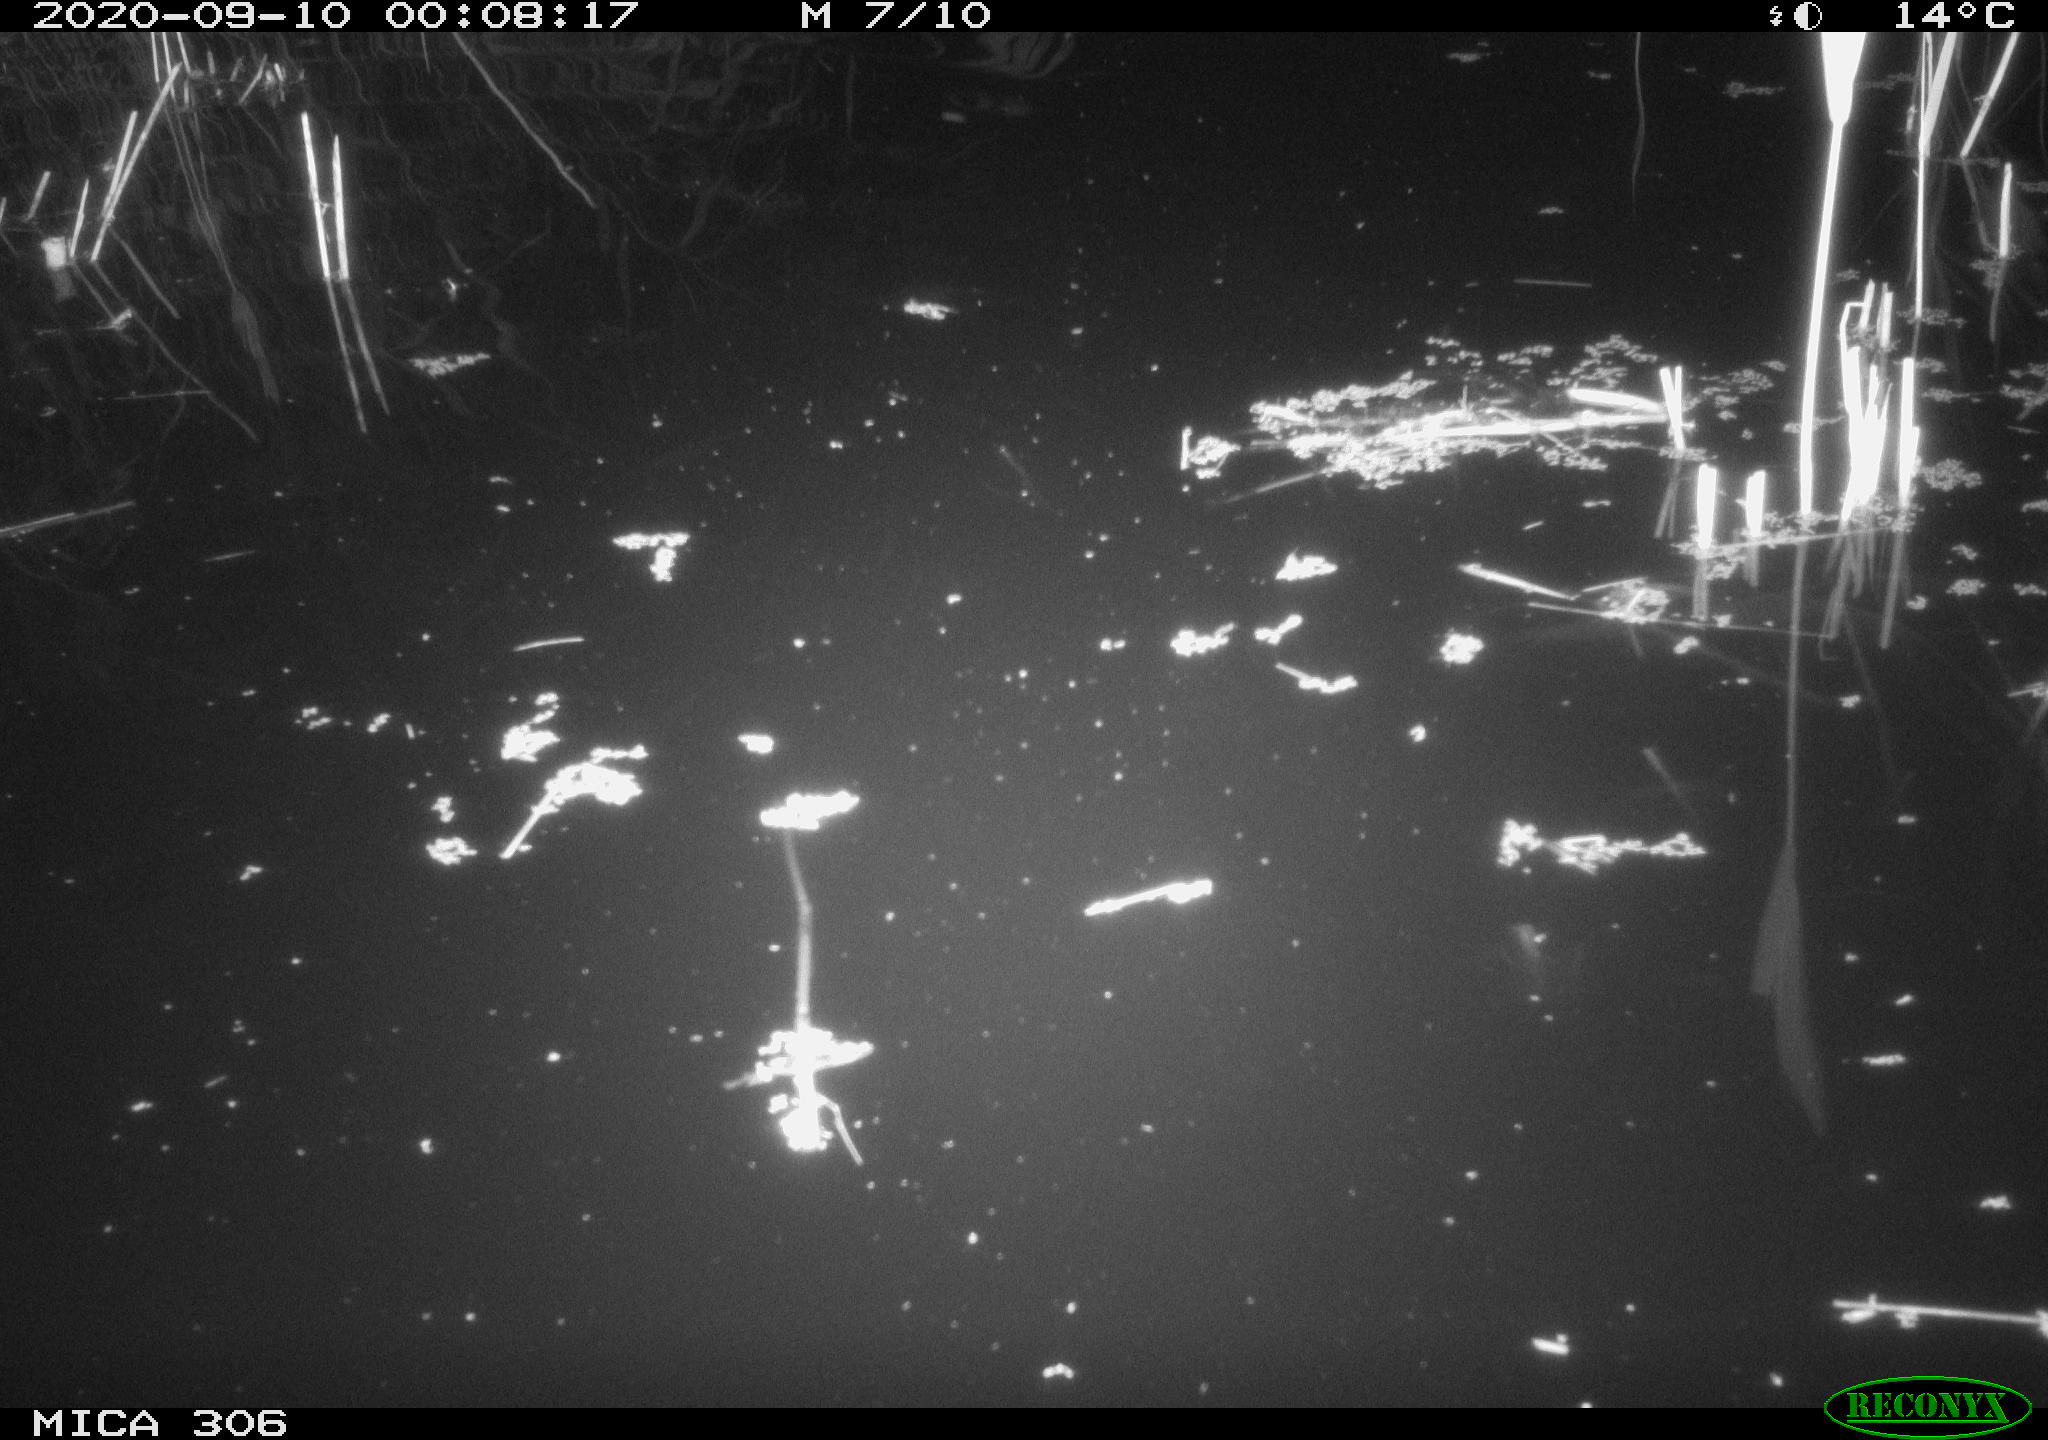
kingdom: Animalia
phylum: Chordata
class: Mammalia
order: Rodentia
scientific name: Rodentia
